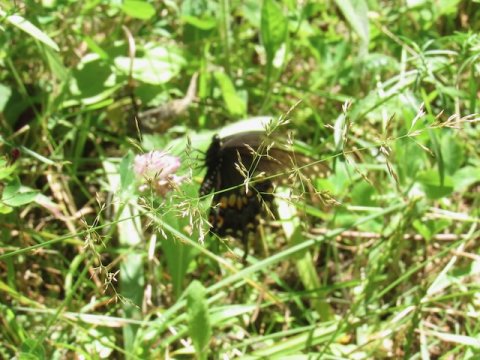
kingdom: Animalia
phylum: Arthropoda
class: Insecta
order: Lepidoptera
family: Papilionidae
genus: Papilio
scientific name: Papilio polyxenes
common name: Black Swallowtail
